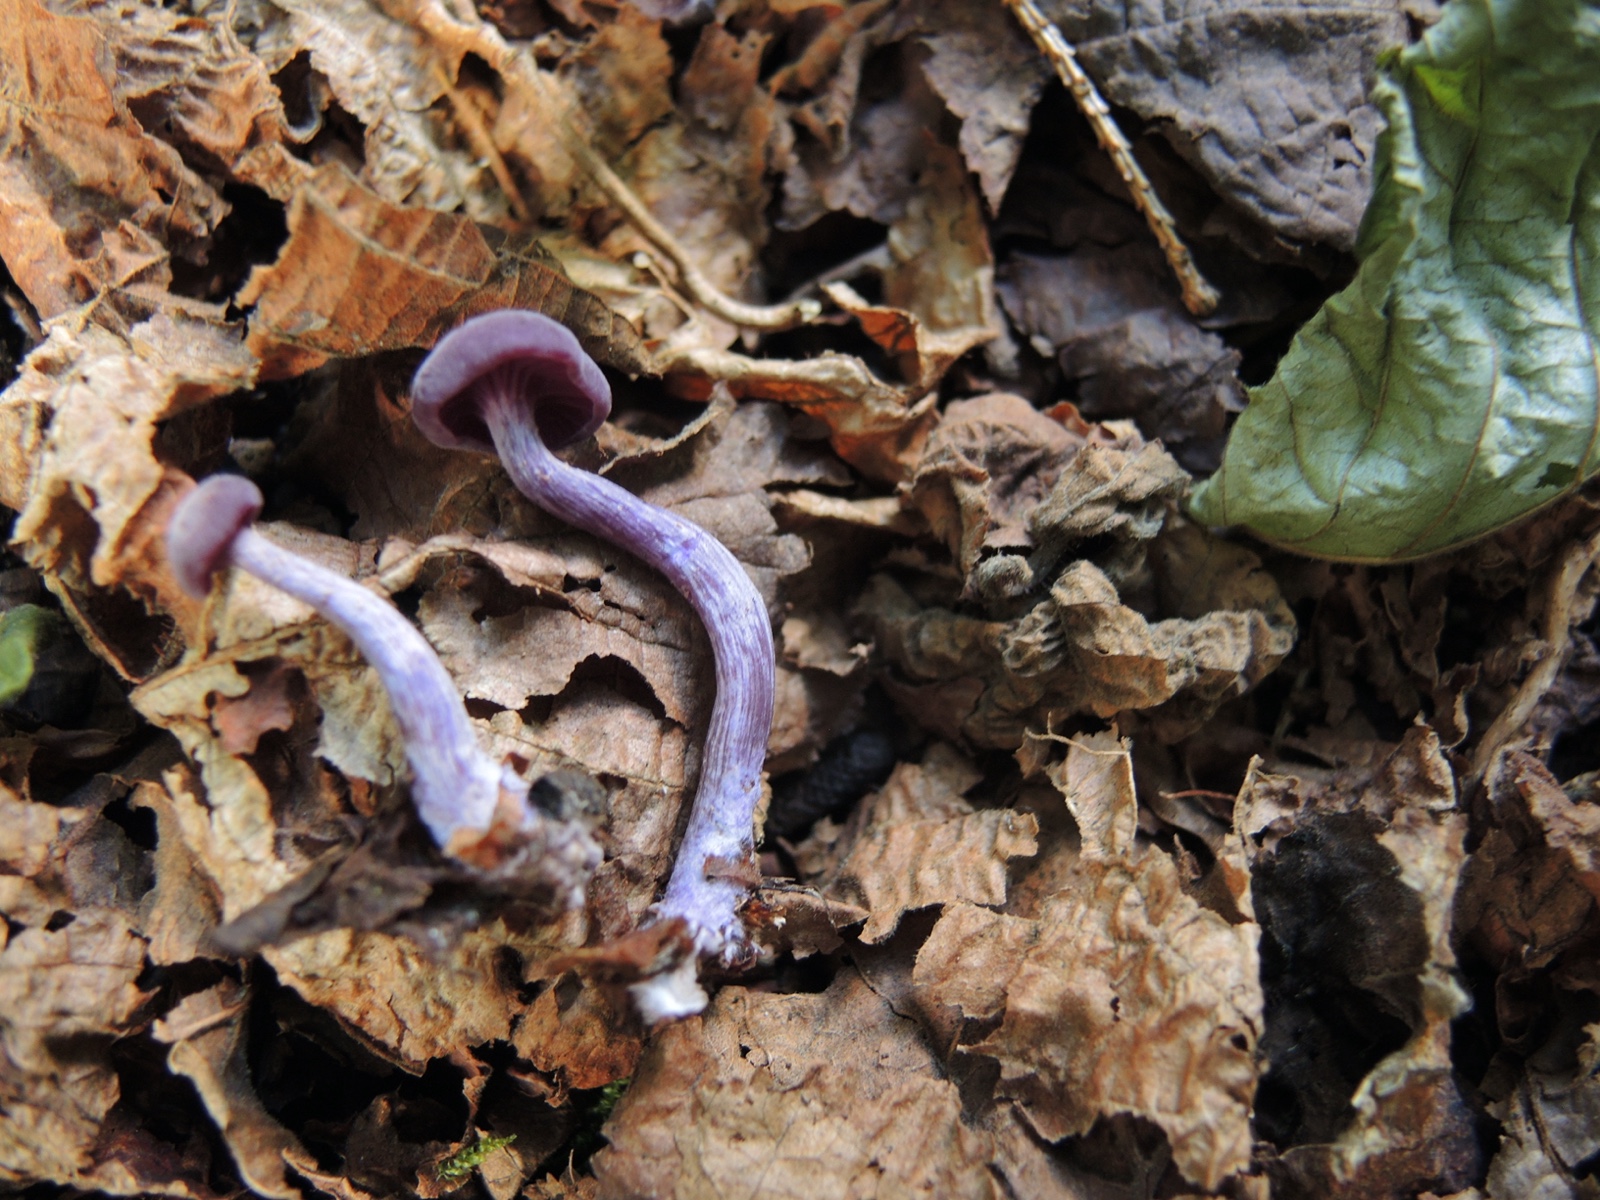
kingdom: Fungi
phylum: Basidiomycota
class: Agaricomycetes
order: Agaricales
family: Hydnangiaceae
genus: Laccaria
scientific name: Laccaria amethystina
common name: violet ametysthat
